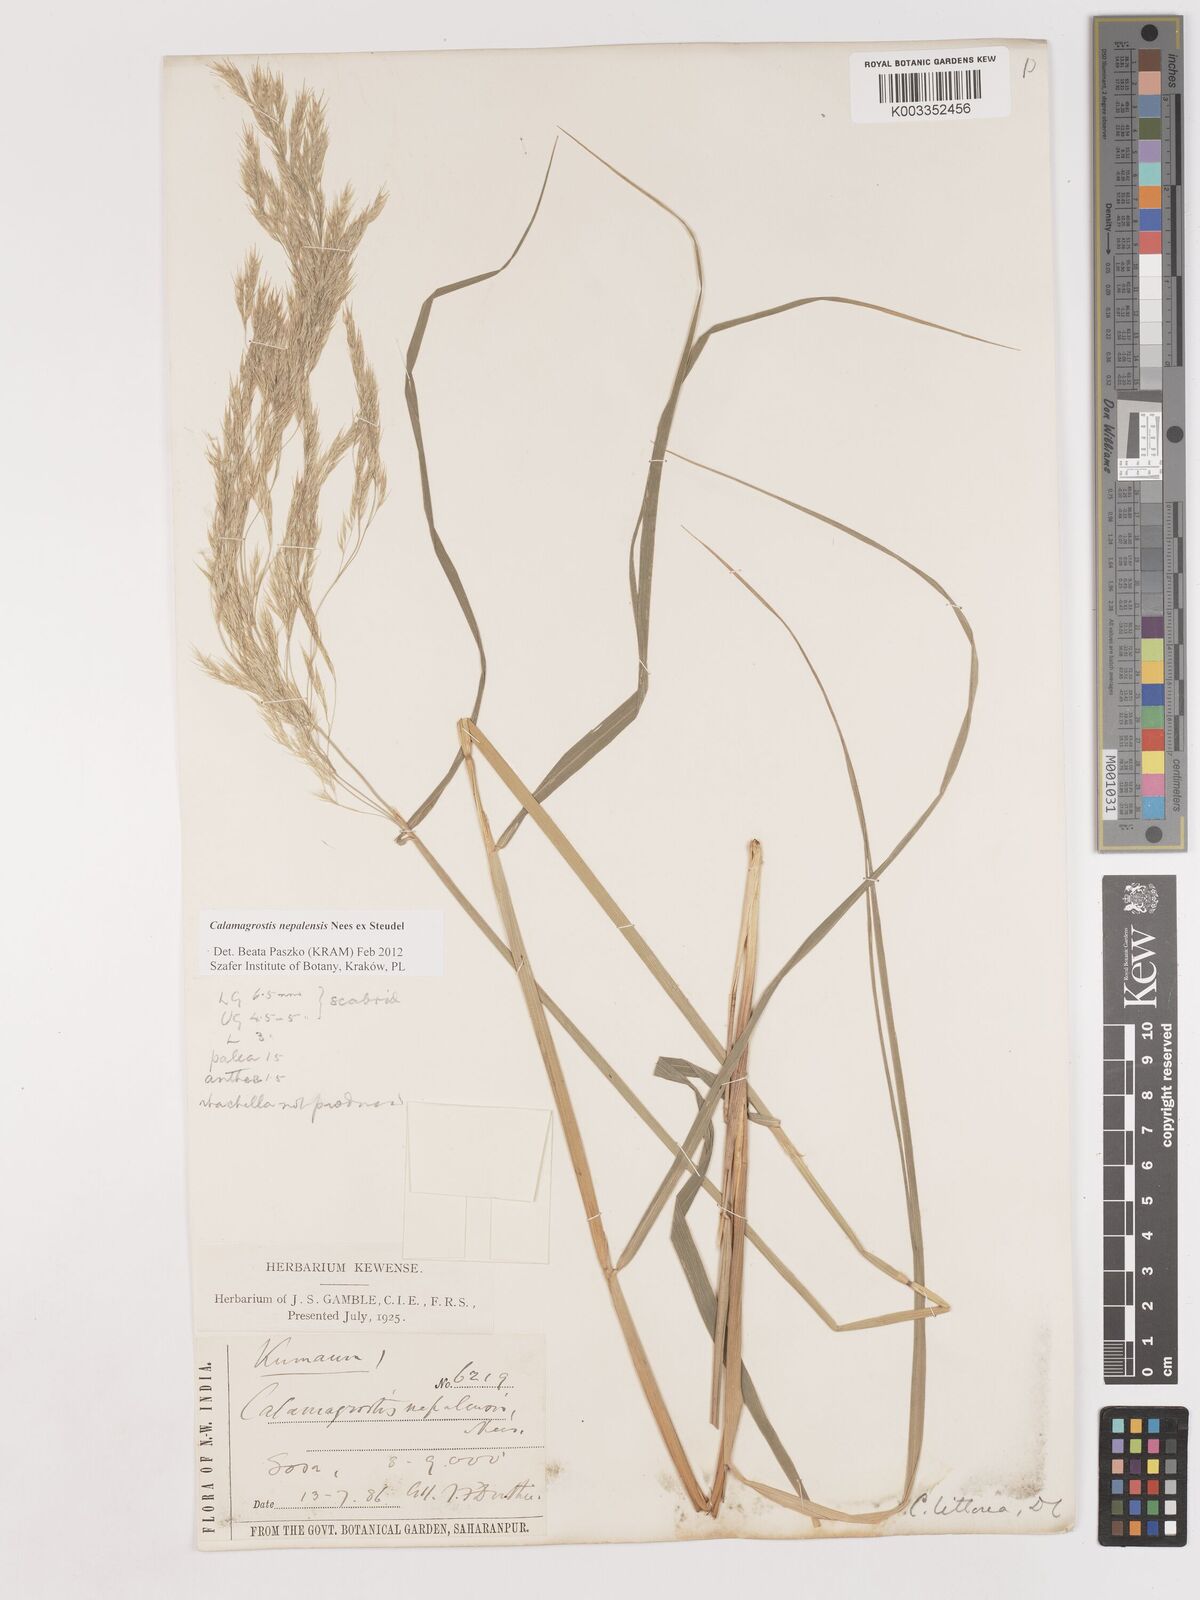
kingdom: Plantae
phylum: Tracheophyta
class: Liliopsida
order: Poales
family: Poaceae
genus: Calamagrostis
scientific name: Calamagrostis pseudophragmites
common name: Coastal small-reed
